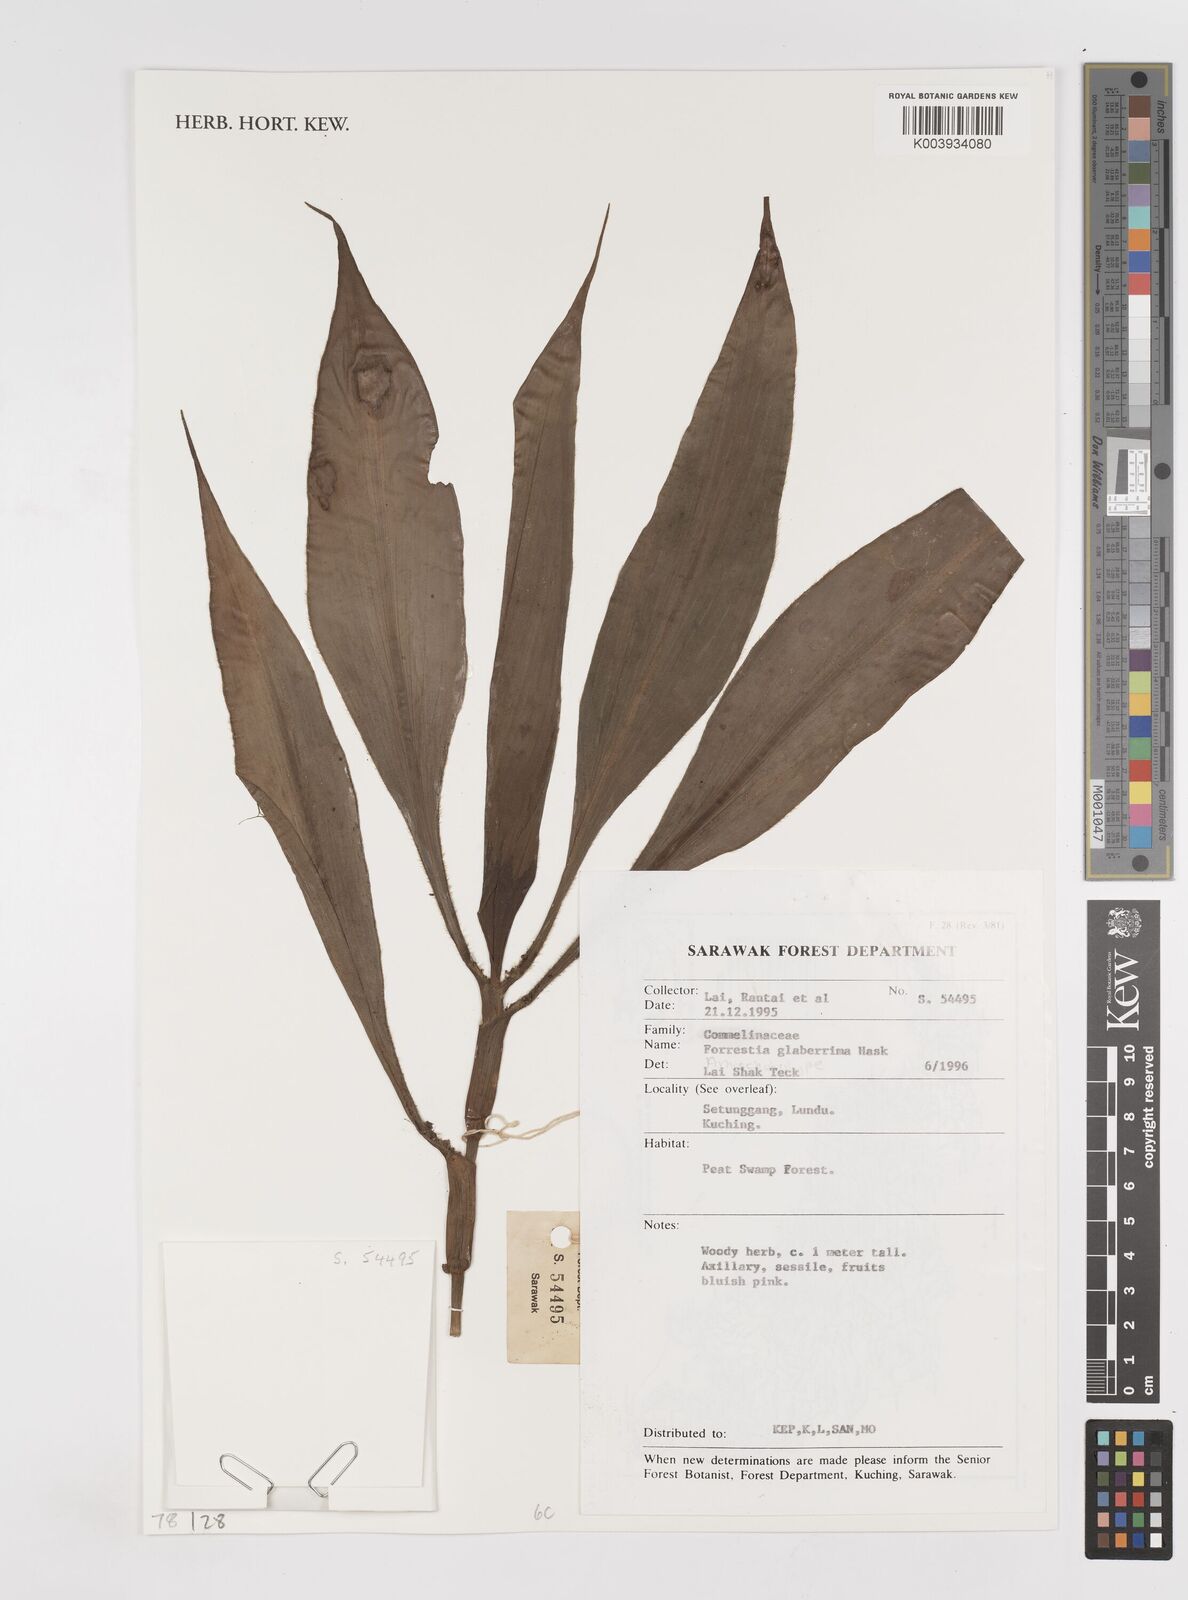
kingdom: Plantae
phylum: Tracheophyta
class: Liliopsida
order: Commelinales
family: Commelinaceae
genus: Amischotolype
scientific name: Amischotolype
